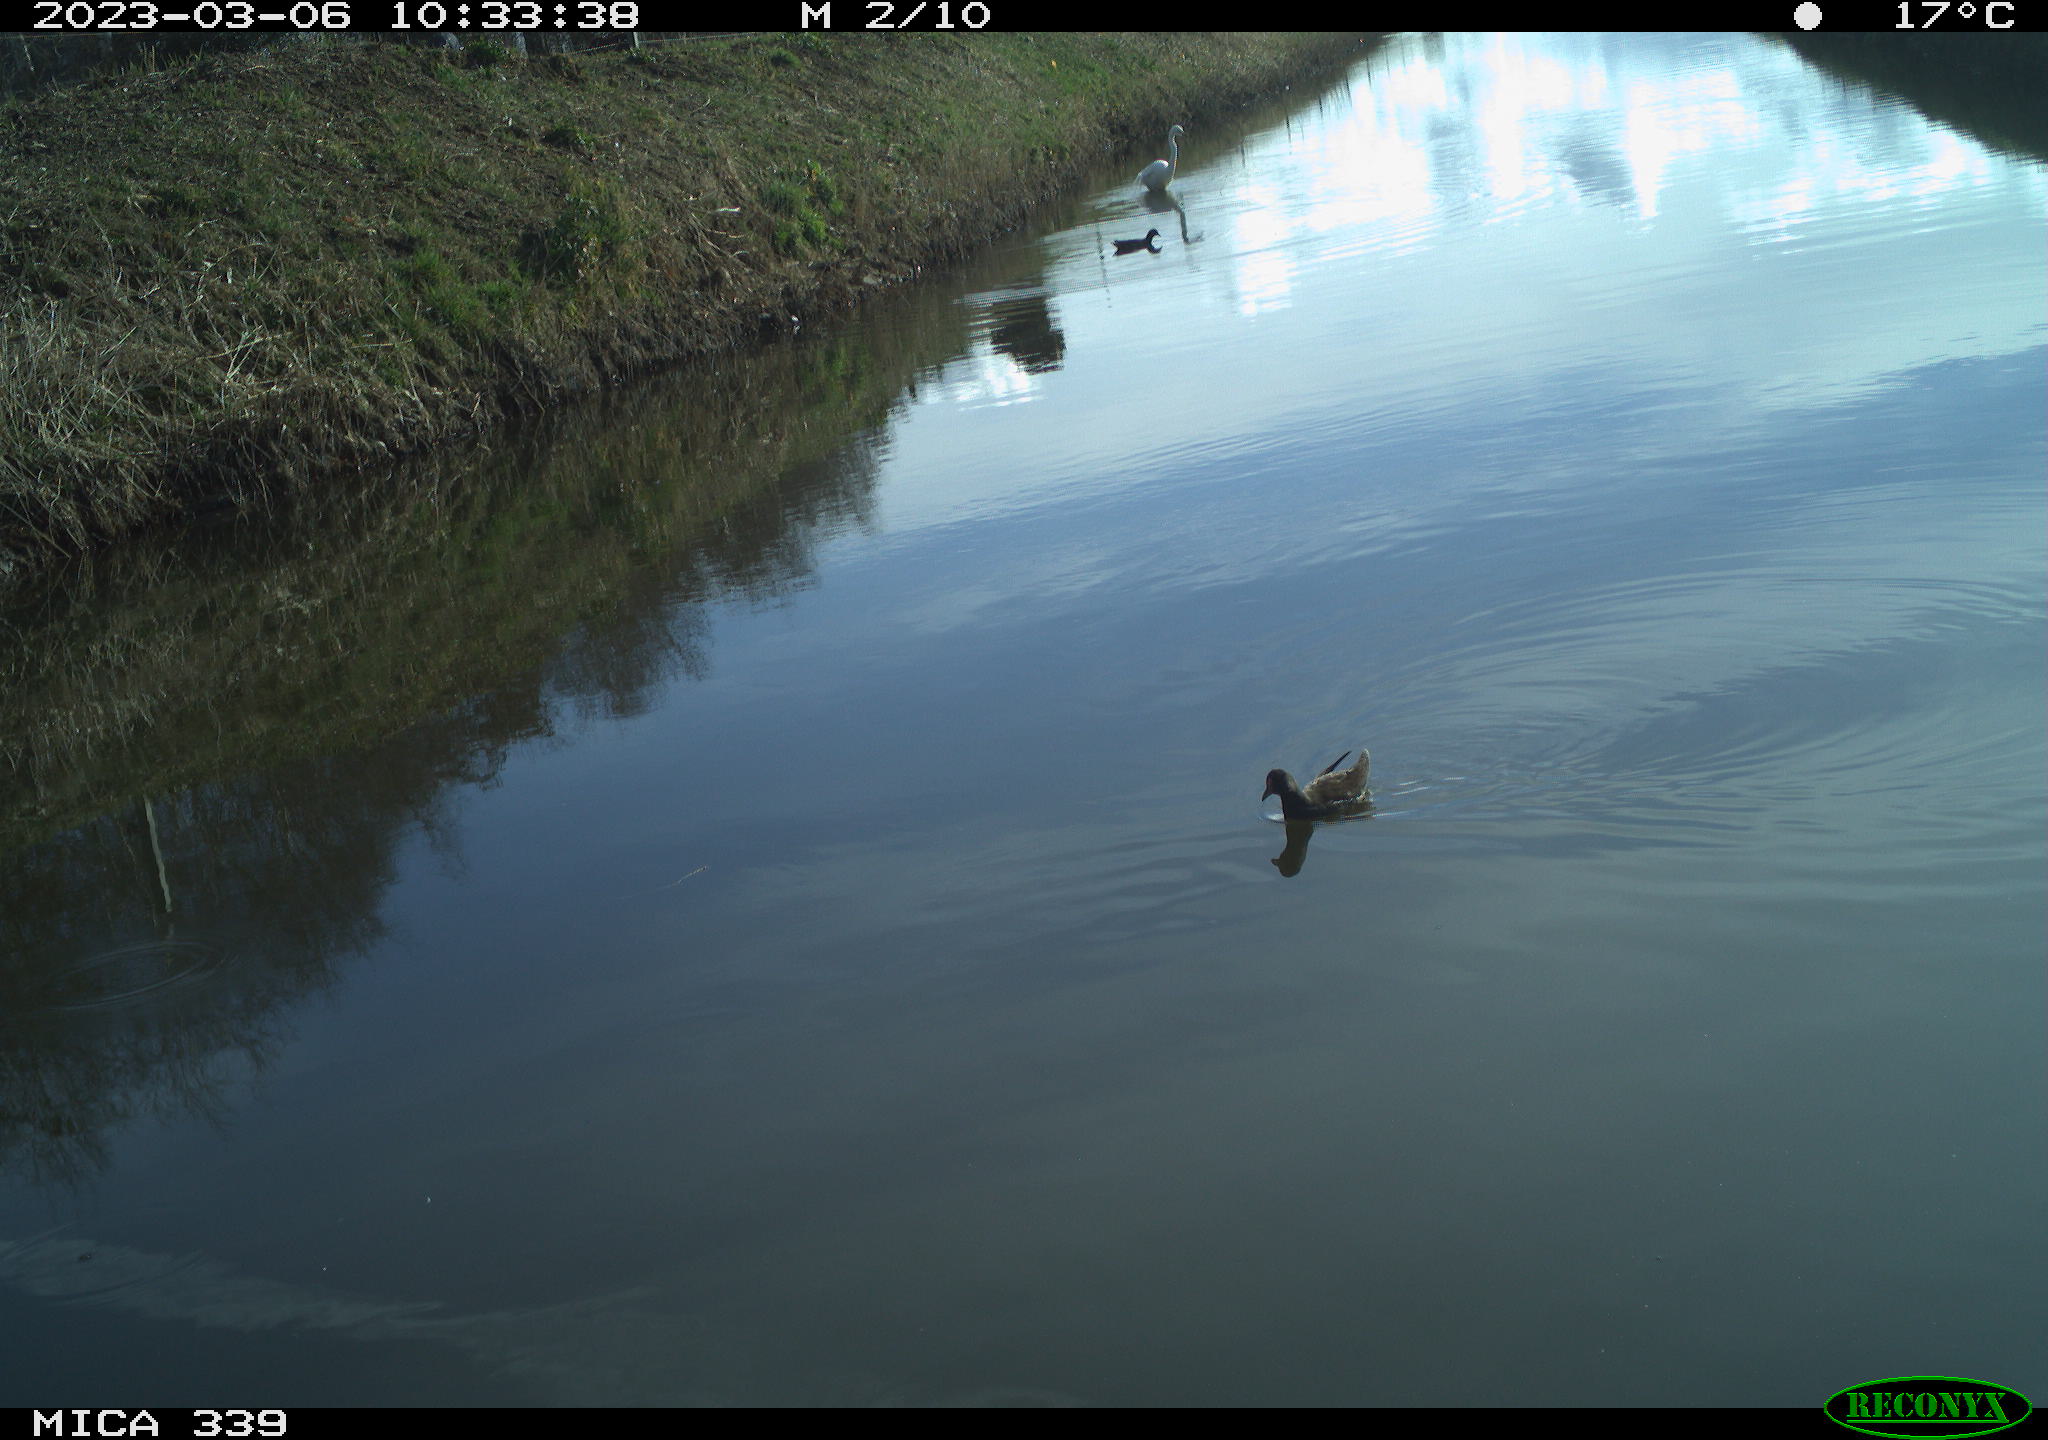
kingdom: Animalia
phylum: Chordata
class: Aves
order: Pelecaniformes
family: Ardeidae
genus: Ardea
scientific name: Ardea alba
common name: Great egret
